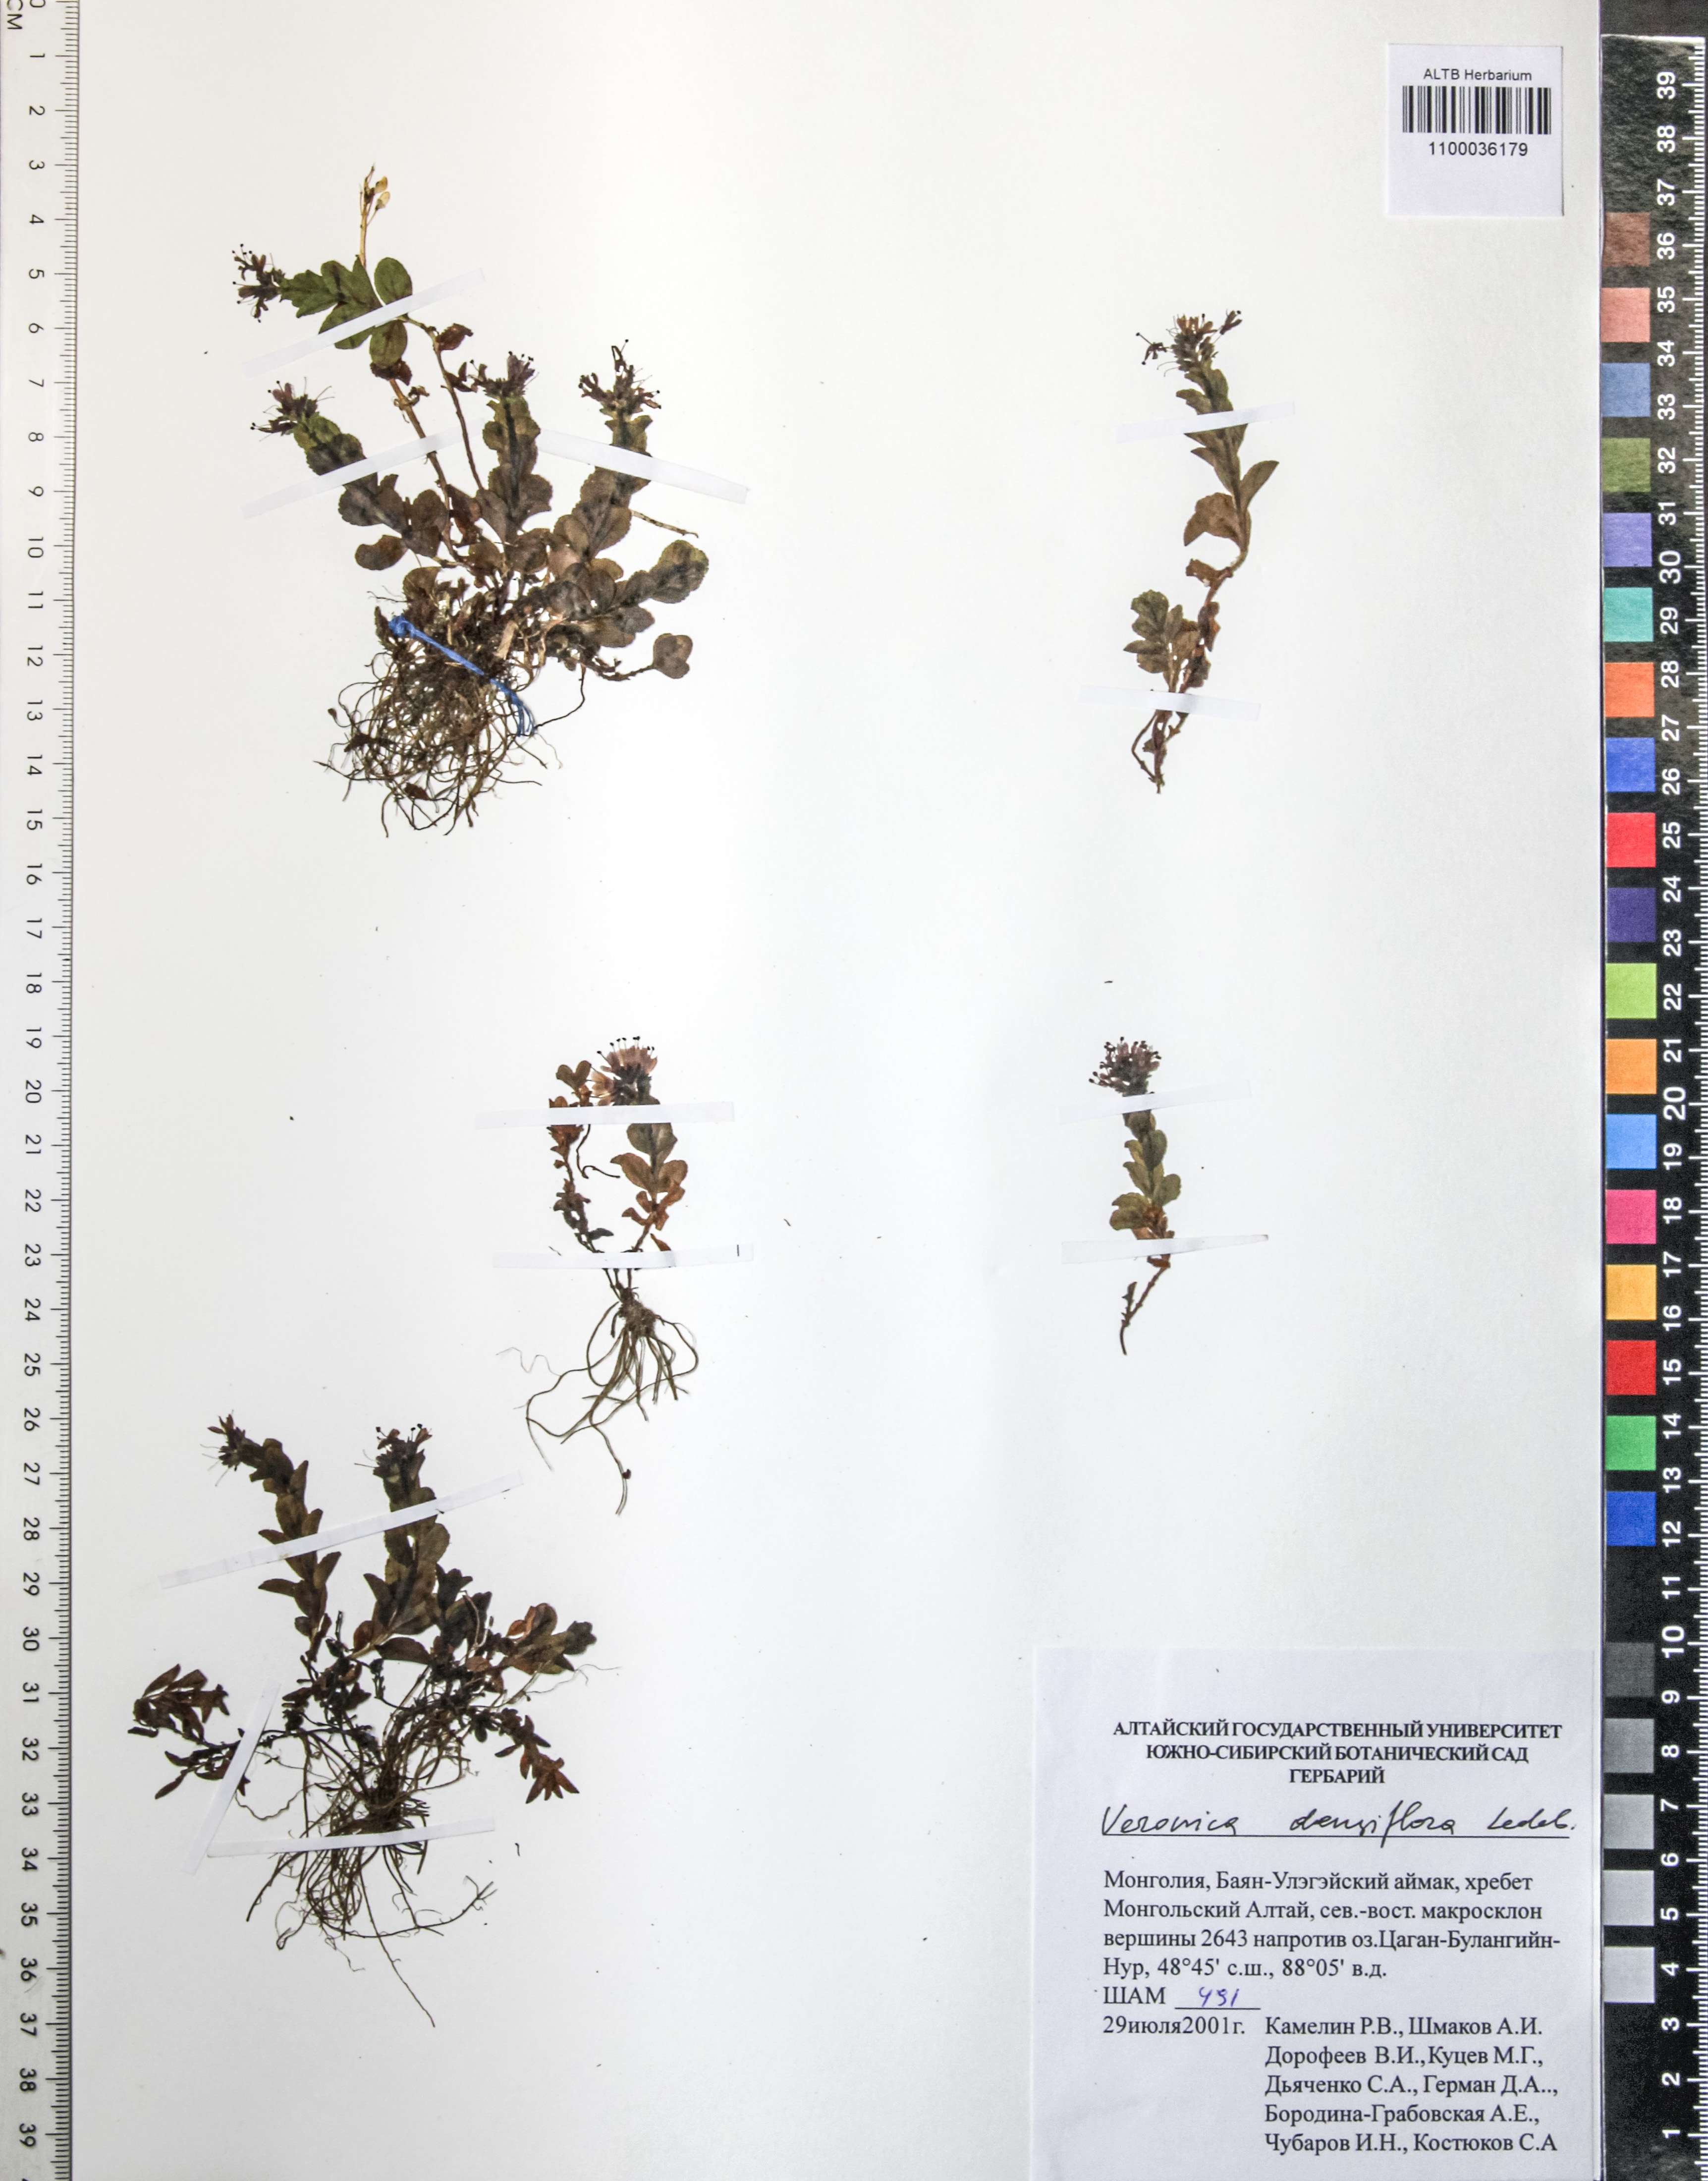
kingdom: Plantae
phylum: Tracheophyta
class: Magnoliopsida
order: Lamiales
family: Plantaginaceae
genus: Veronica
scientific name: Veronica densiflora
